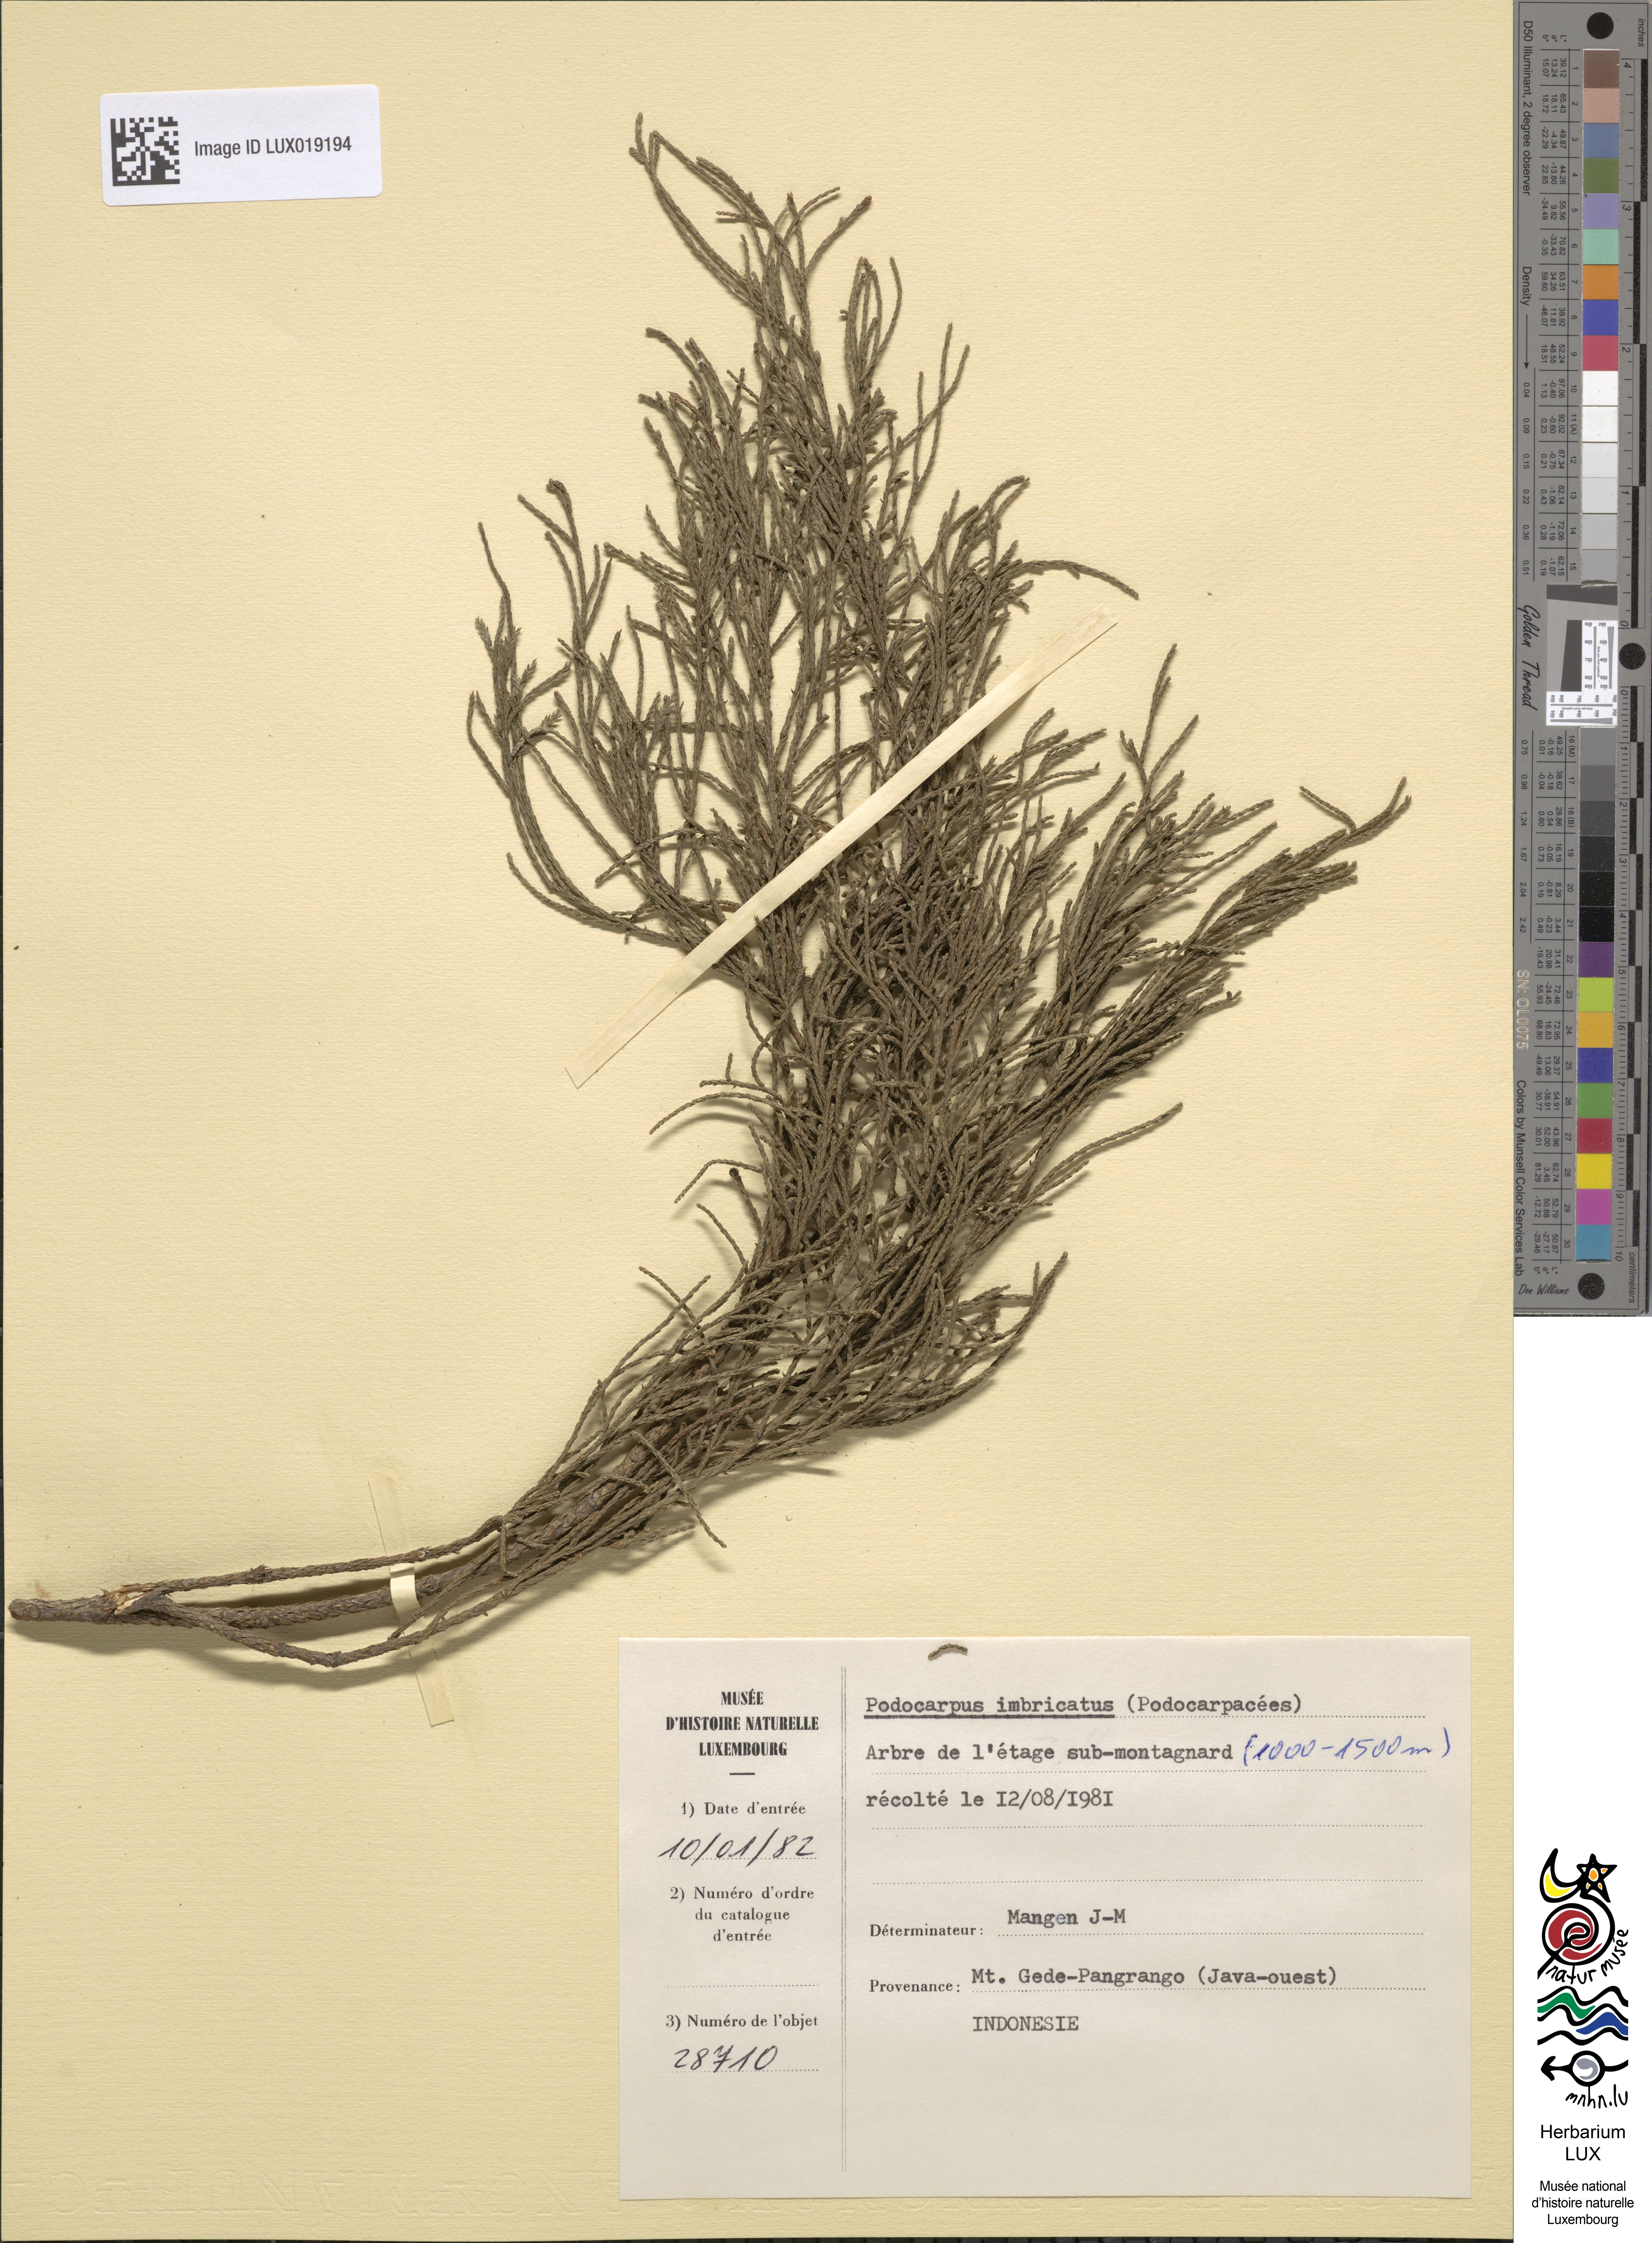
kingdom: Plantae
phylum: Tracheophyta
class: Pinopsida
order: Pinales
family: Podocarpaceae
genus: Dacrycarpus
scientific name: Dacrycarpus
